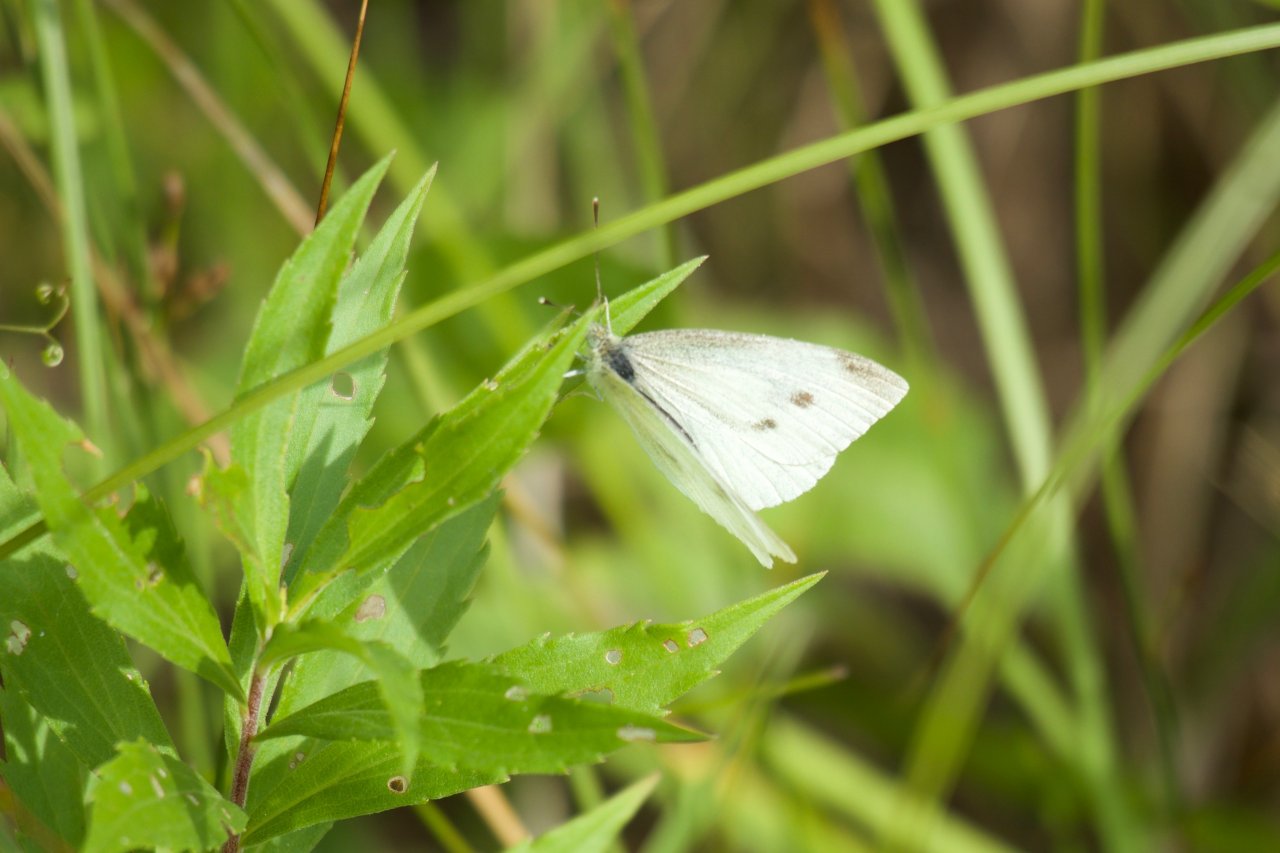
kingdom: Animalia
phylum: Arthropoda
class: Insecta
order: Lepidoptera
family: Pieridae
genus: Pieris
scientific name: Pieris rapae
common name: Cabbage White
